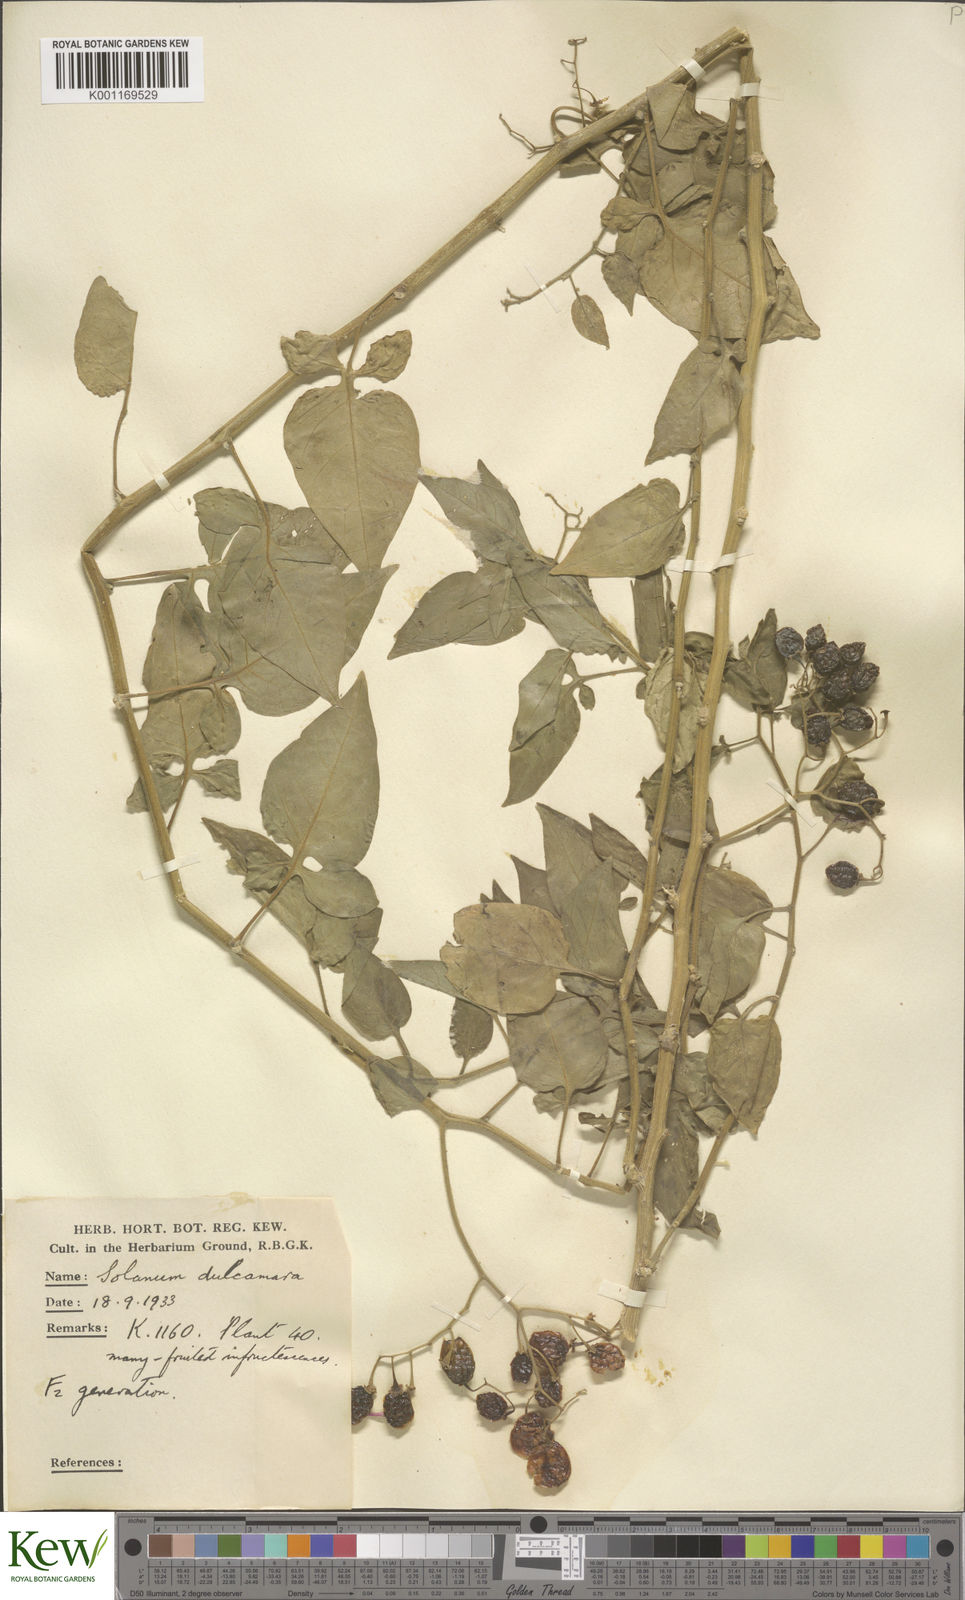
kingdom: Plantae
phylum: Tracheophyta
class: Magnoliopsida
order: Solanales
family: Solanaceae
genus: Solanum
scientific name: Solanum dulcamara
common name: Climbing nightshade
